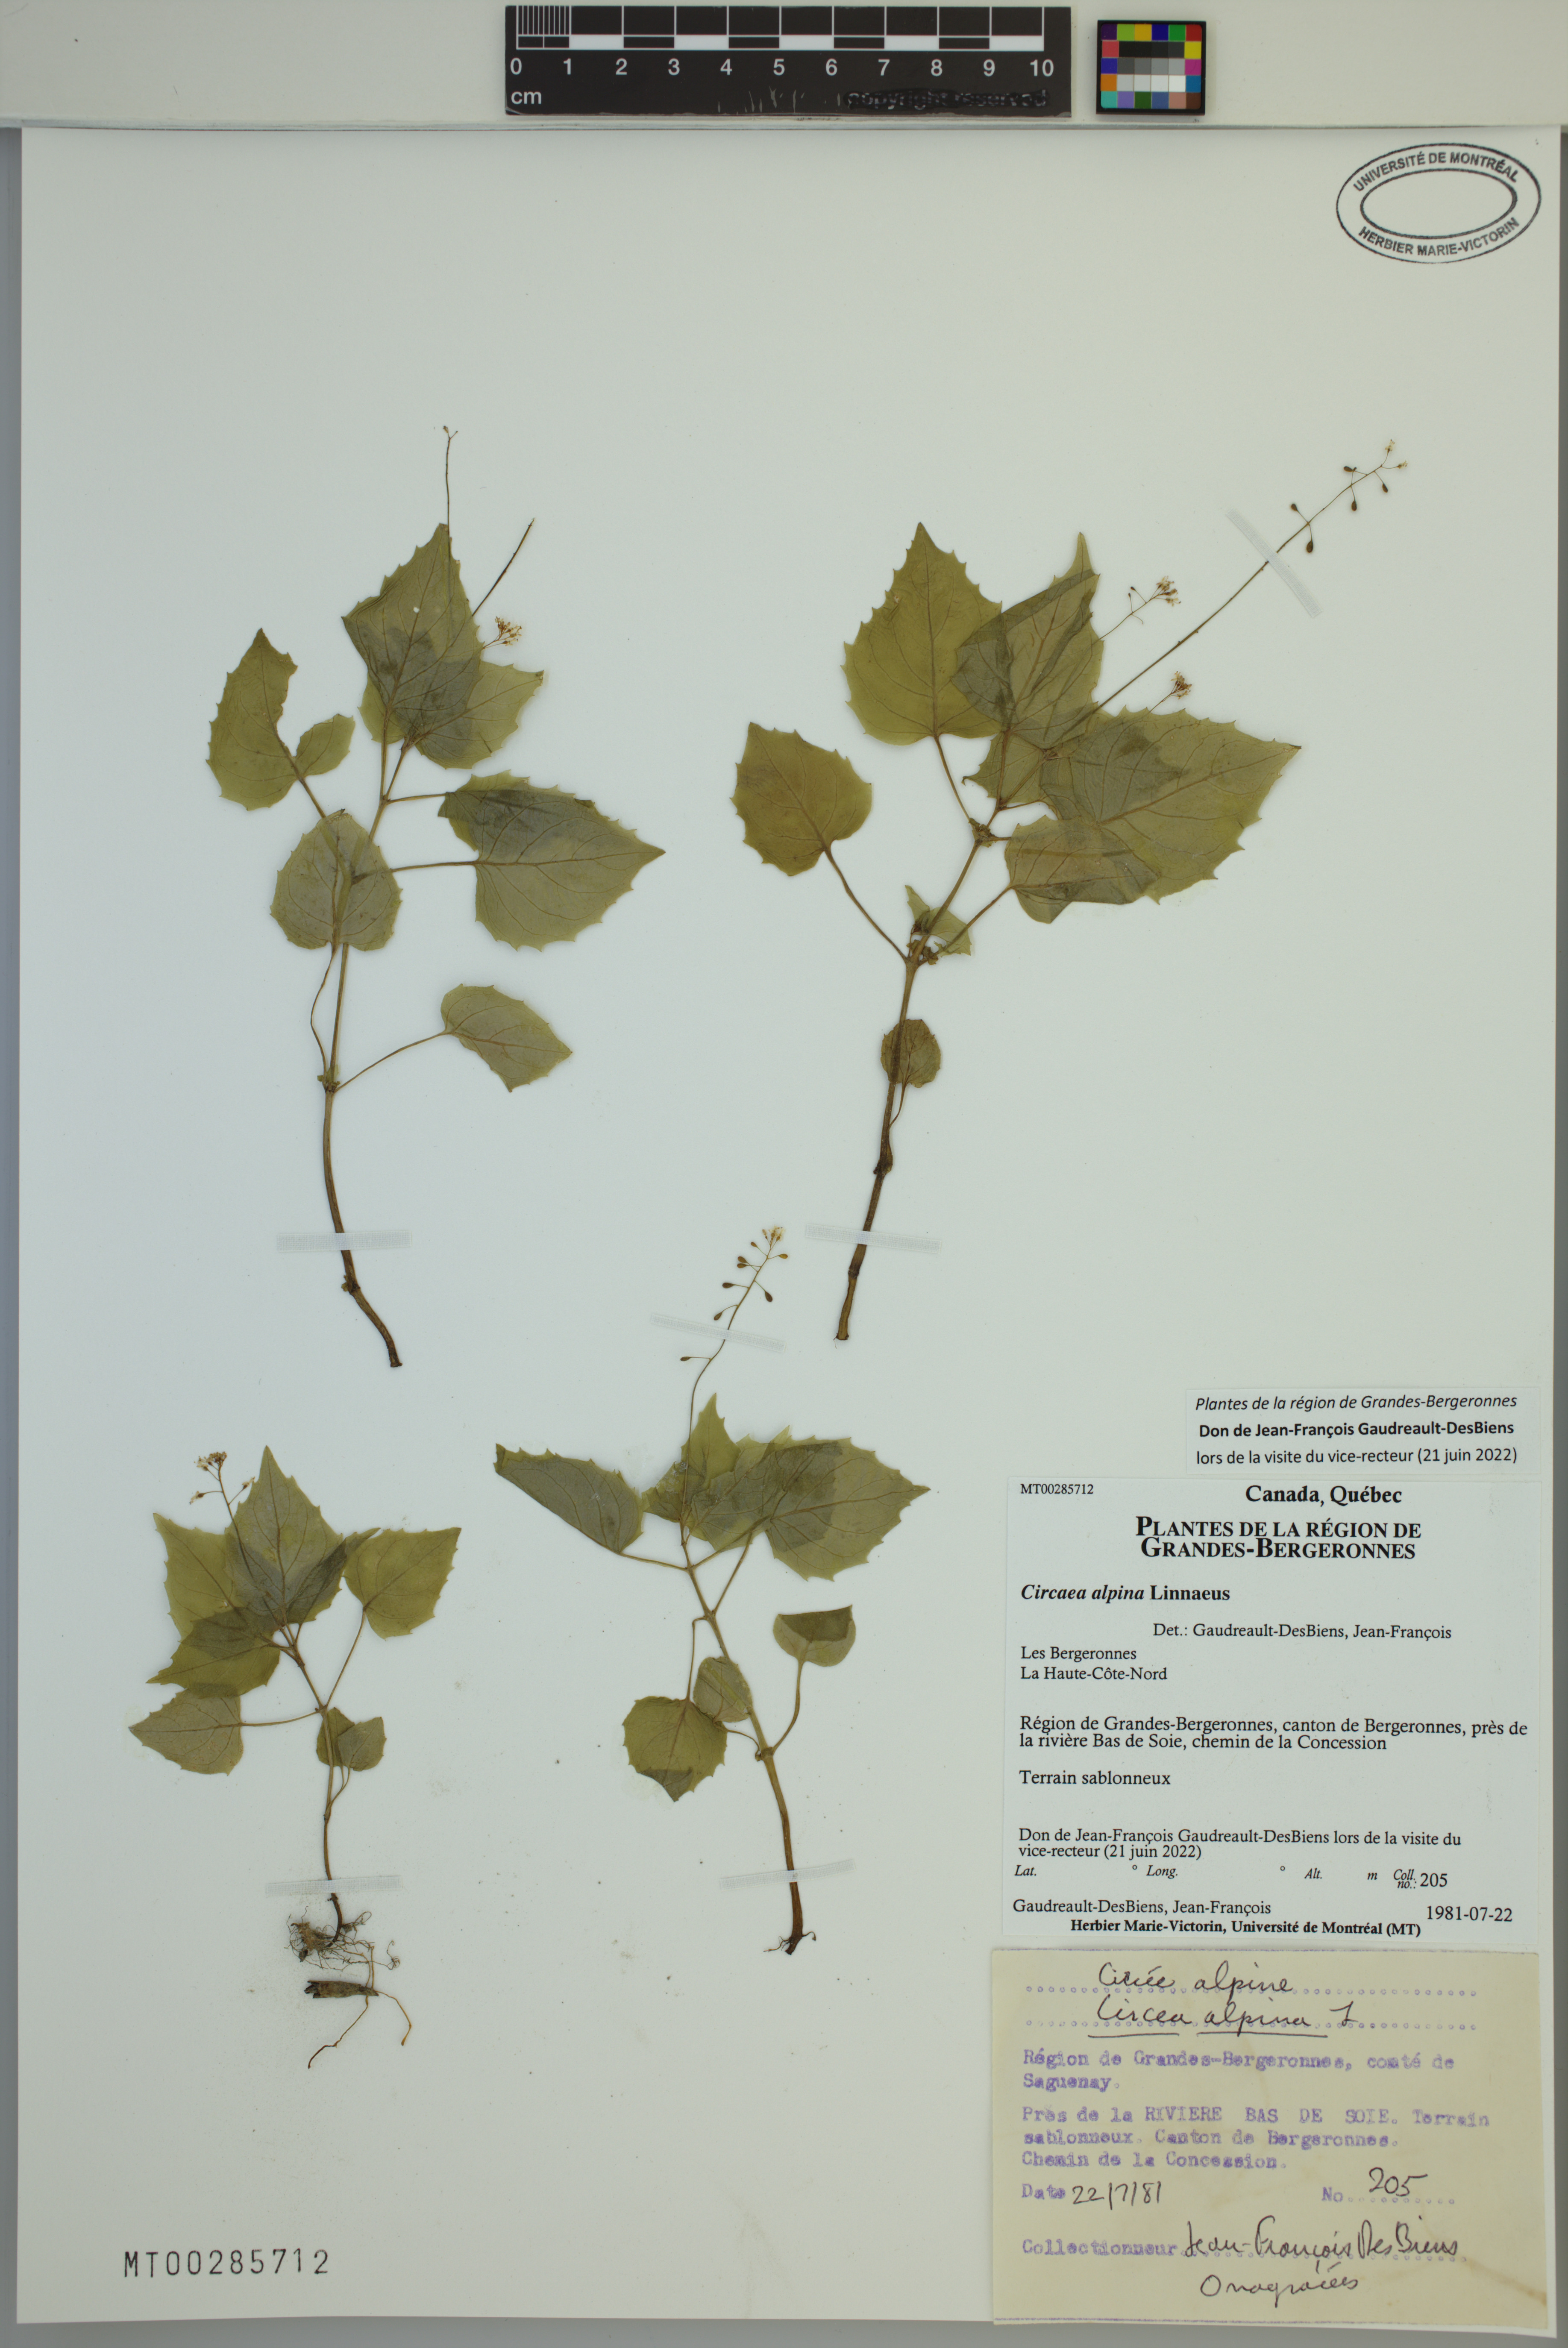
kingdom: Plantae
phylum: Tracheophyta
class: Magnoliopsida
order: Myrtales
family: Onagraceae
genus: Circaea
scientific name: Circaea alpina
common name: Alpine enchanter's-nightshade
